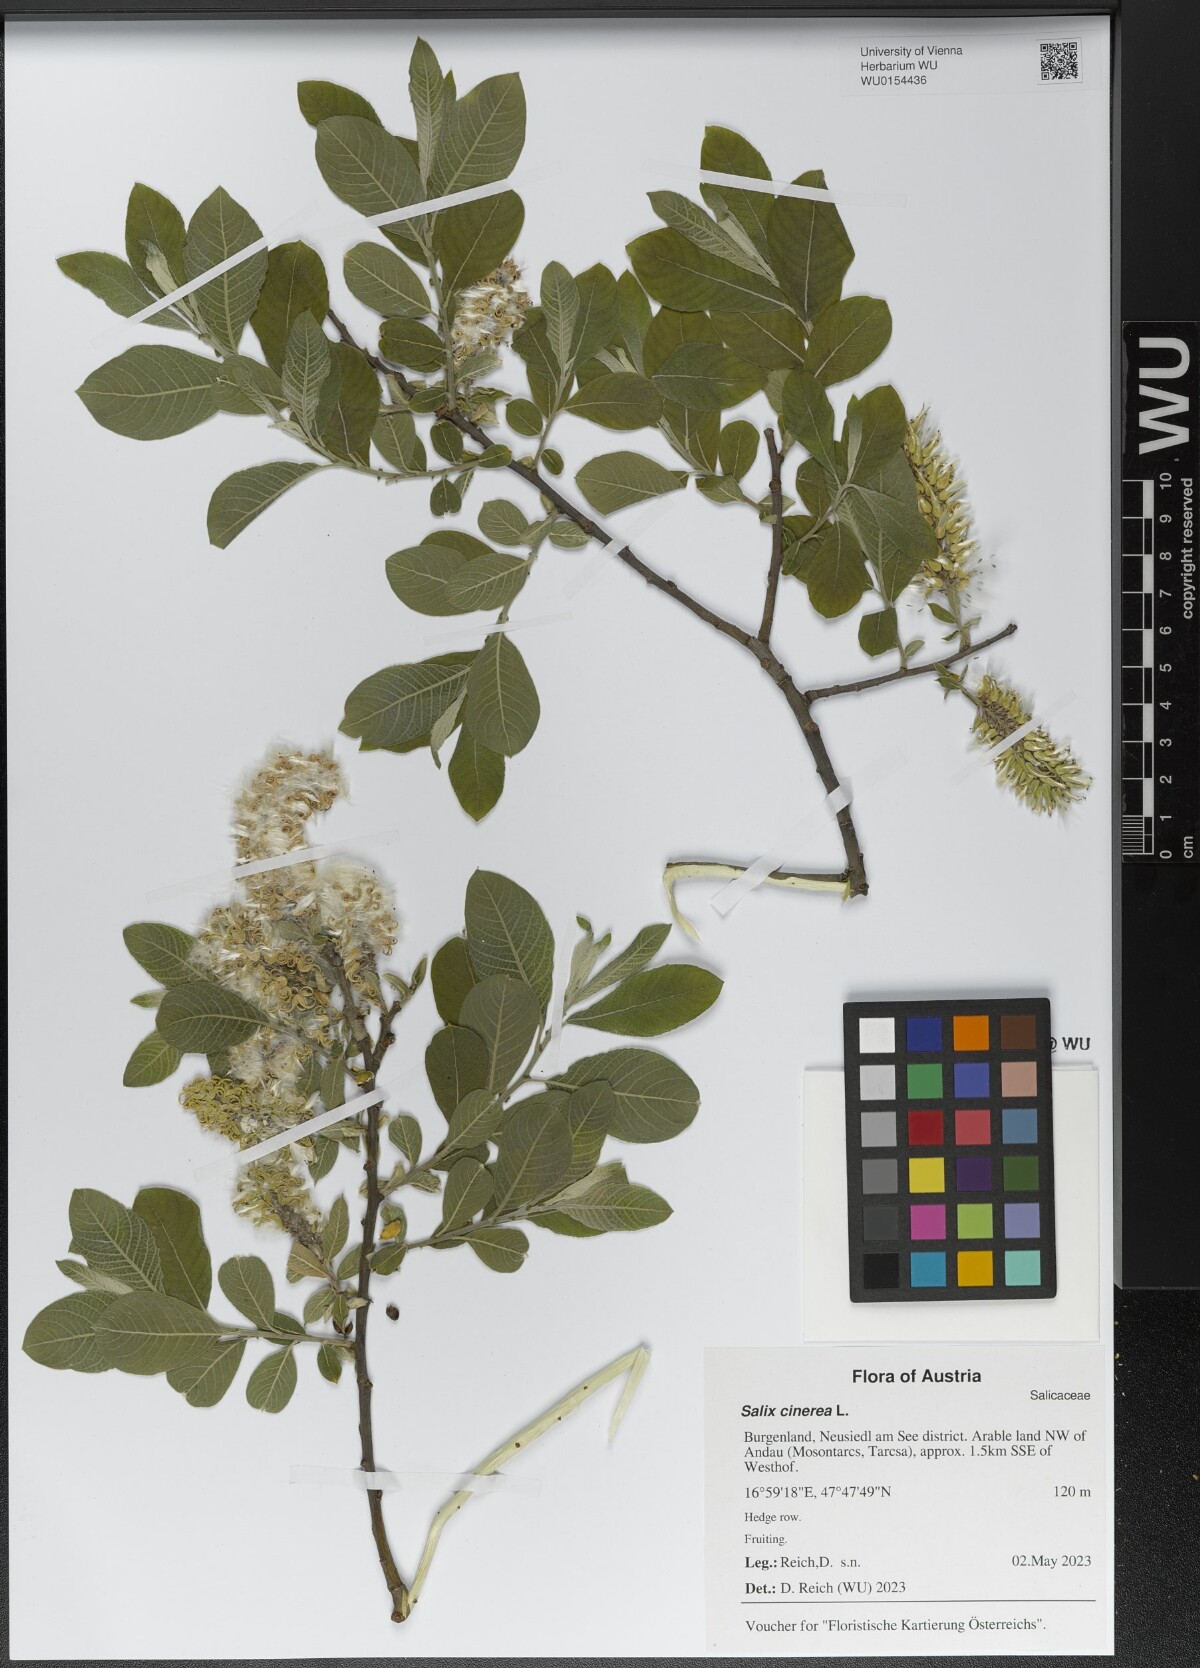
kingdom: Plantae
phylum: Tracheophyta
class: Magnoliopsida
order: Malpighiales
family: Salicaceae
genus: Salix
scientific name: Salix cinerea
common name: Common sallow
